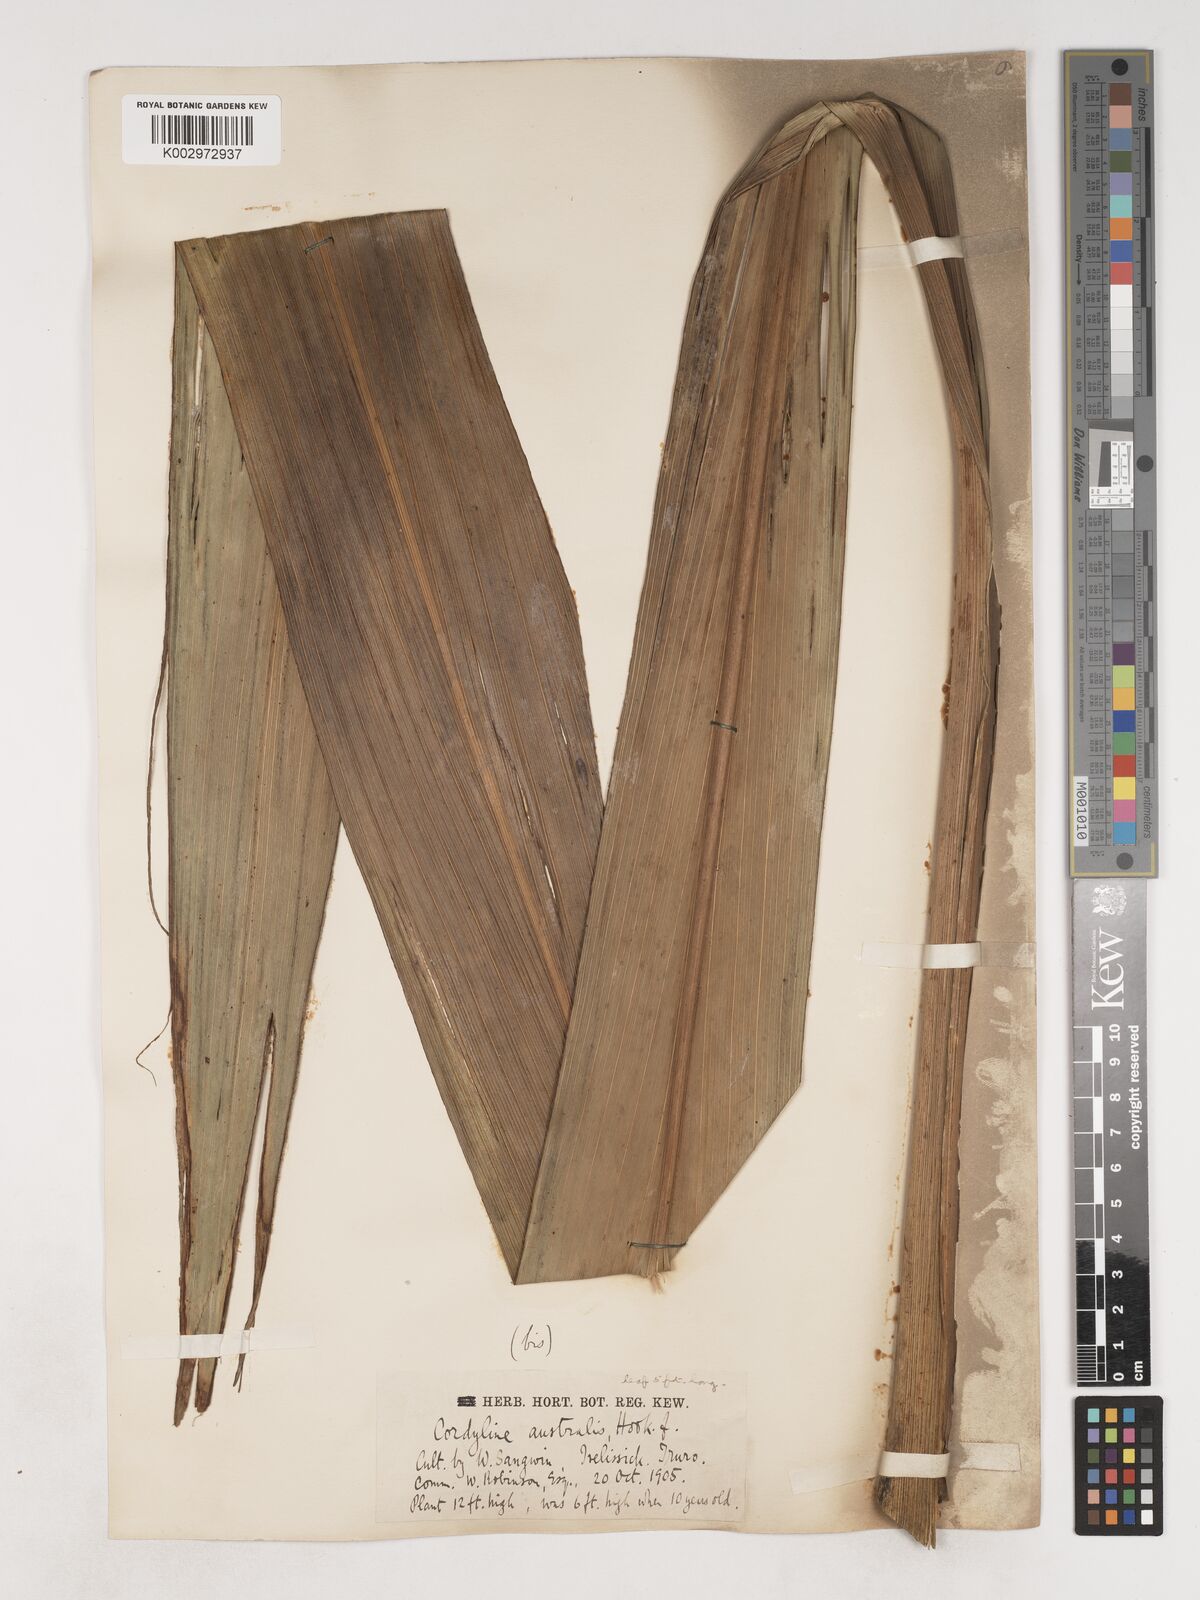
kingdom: Plantae
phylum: Tracheophyta
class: Liliopsida
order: Asparagales
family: Asparagaceae
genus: Cordyline
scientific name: Cordyline australis
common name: Cabbage-palm
